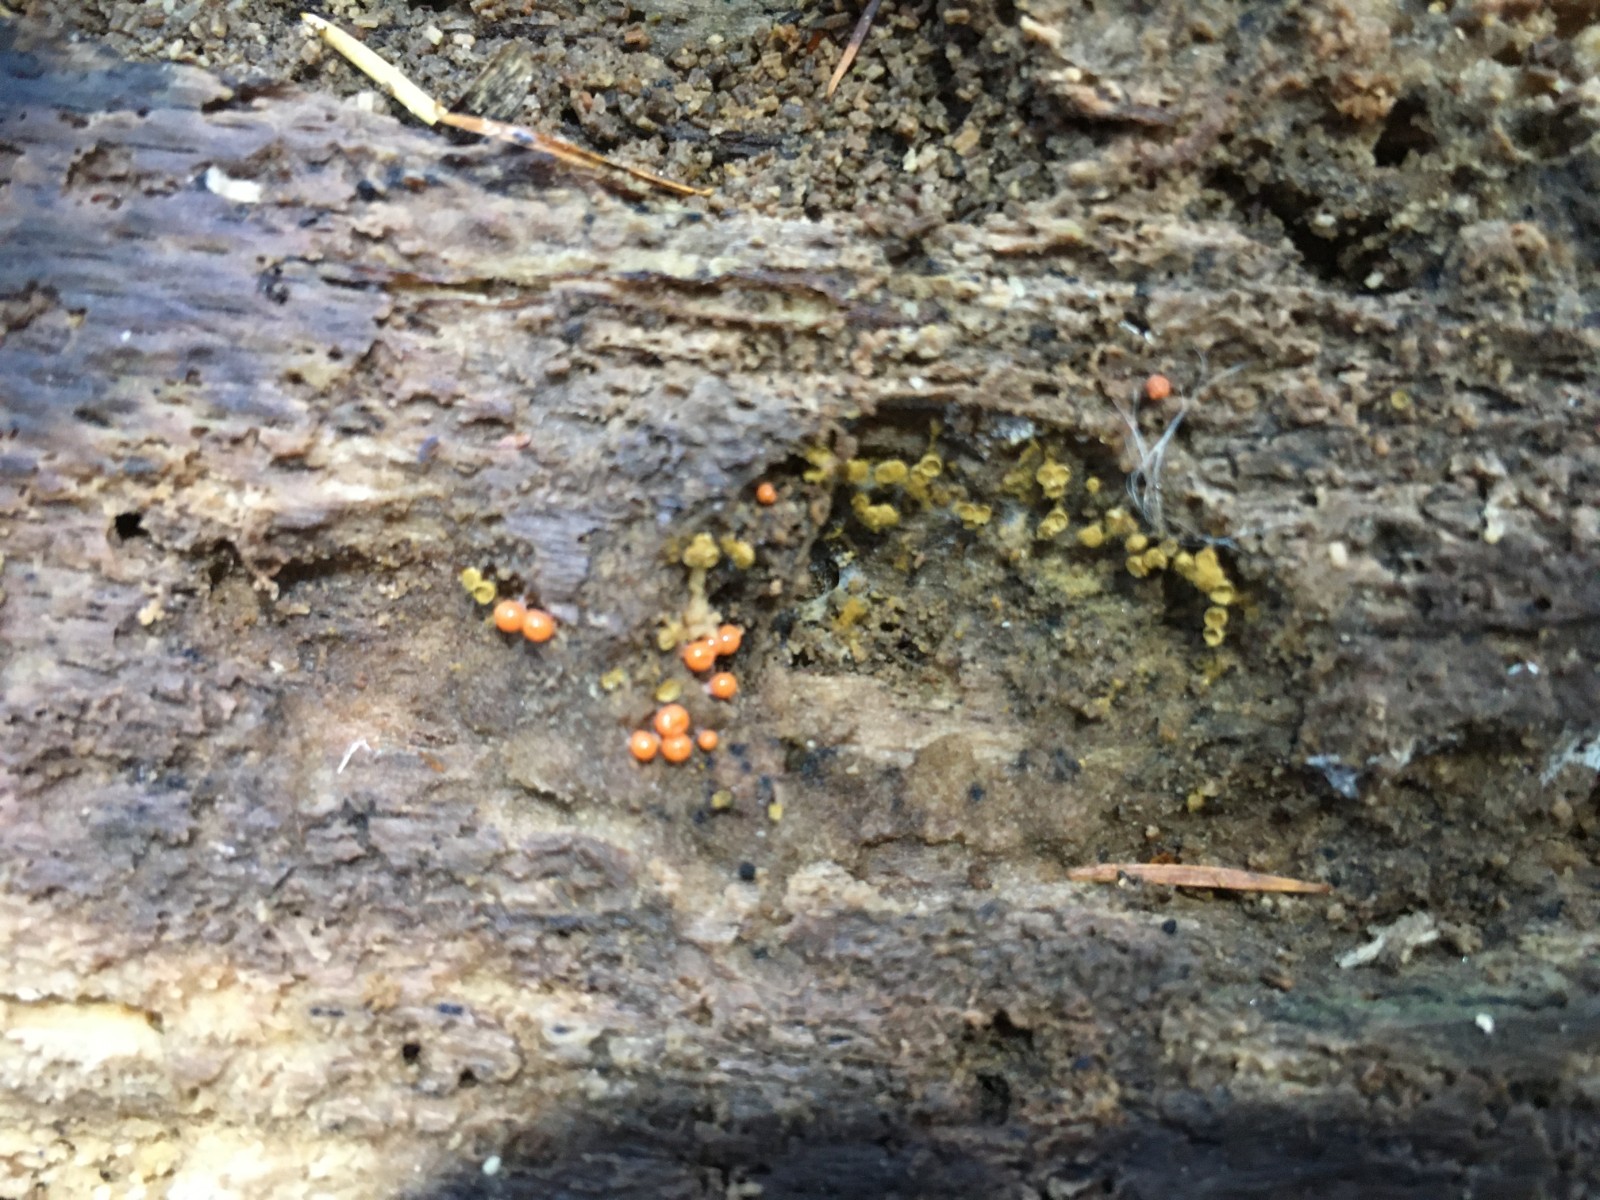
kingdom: Protozoa
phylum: Mycetozoa
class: Myxomycetes
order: Trichiales
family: Arcyriaceae
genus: Hemitrichia
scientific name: Hemitrichia decipiens
